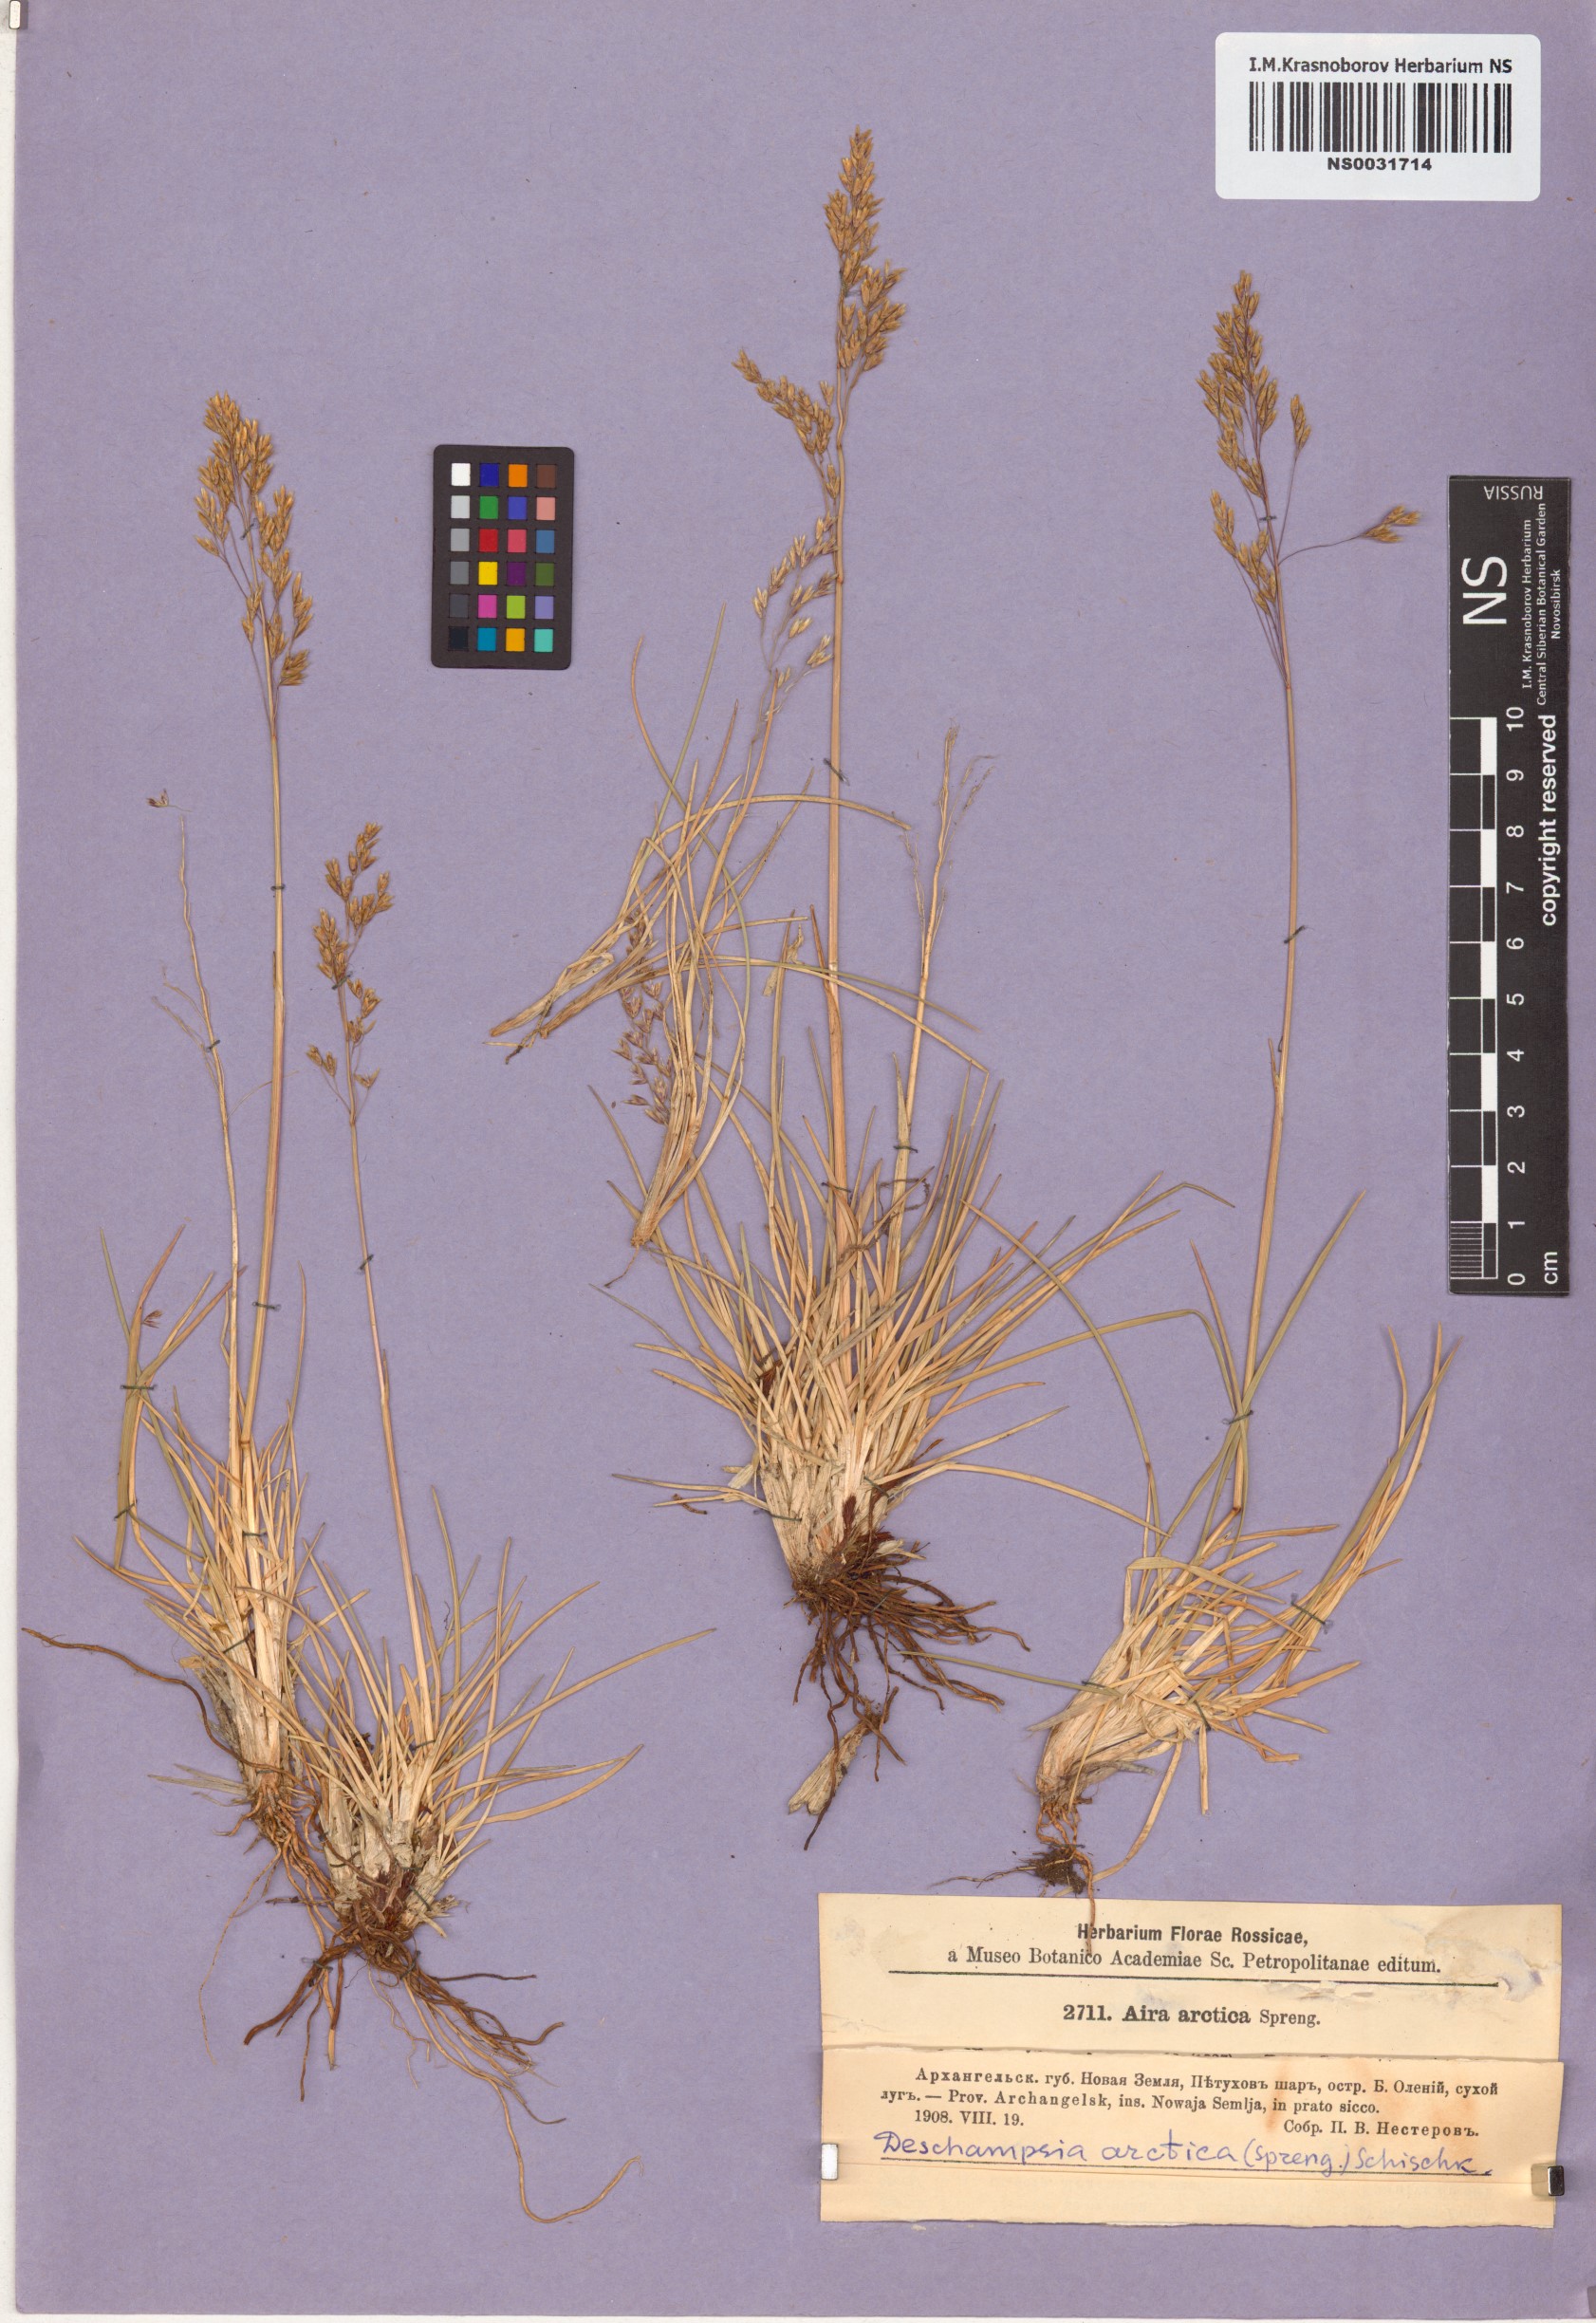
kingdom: Plantae
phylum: Tracheophyta
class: Liliopsida
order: Poales
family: Poaceae
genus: Deschampsia
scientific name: Deschampsia cespitosa
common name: Tufted hair-grass
